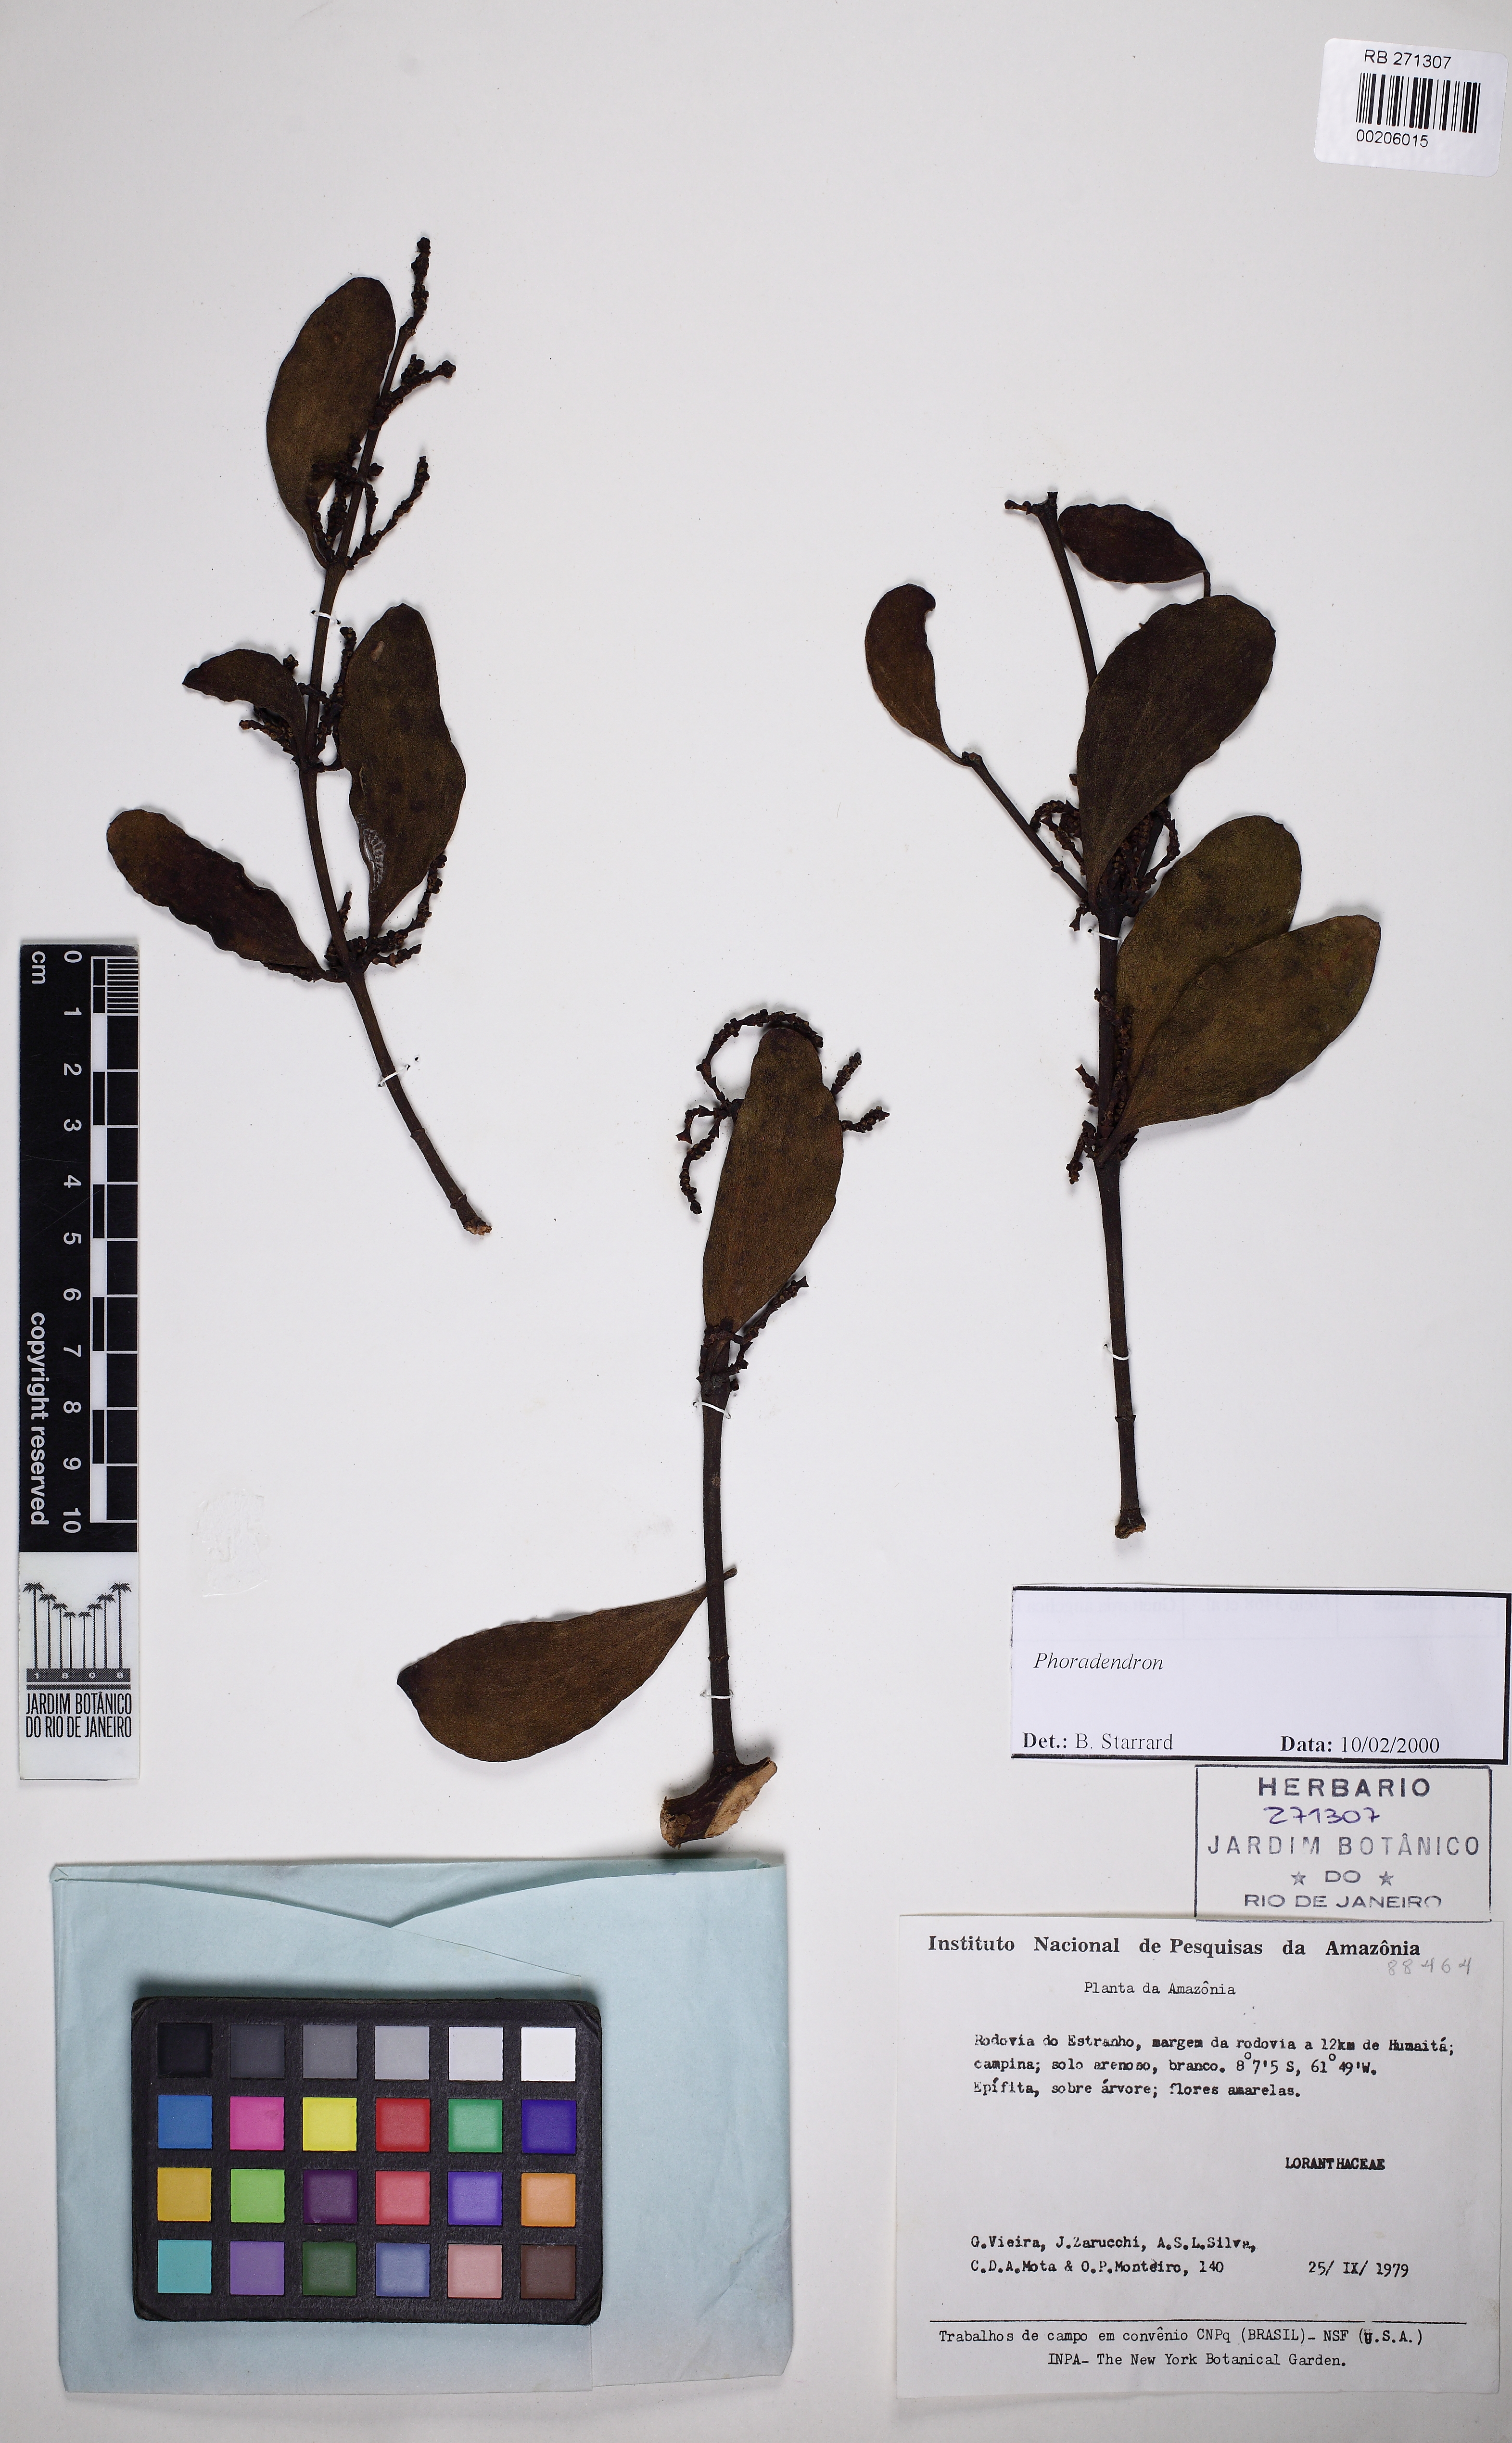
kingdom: Plantae
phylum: Tracheophyta
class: Magnoliopsida
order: Santalales
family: Viscaceae
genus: Dendrophthora
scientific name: Dendrophthora warmingii
